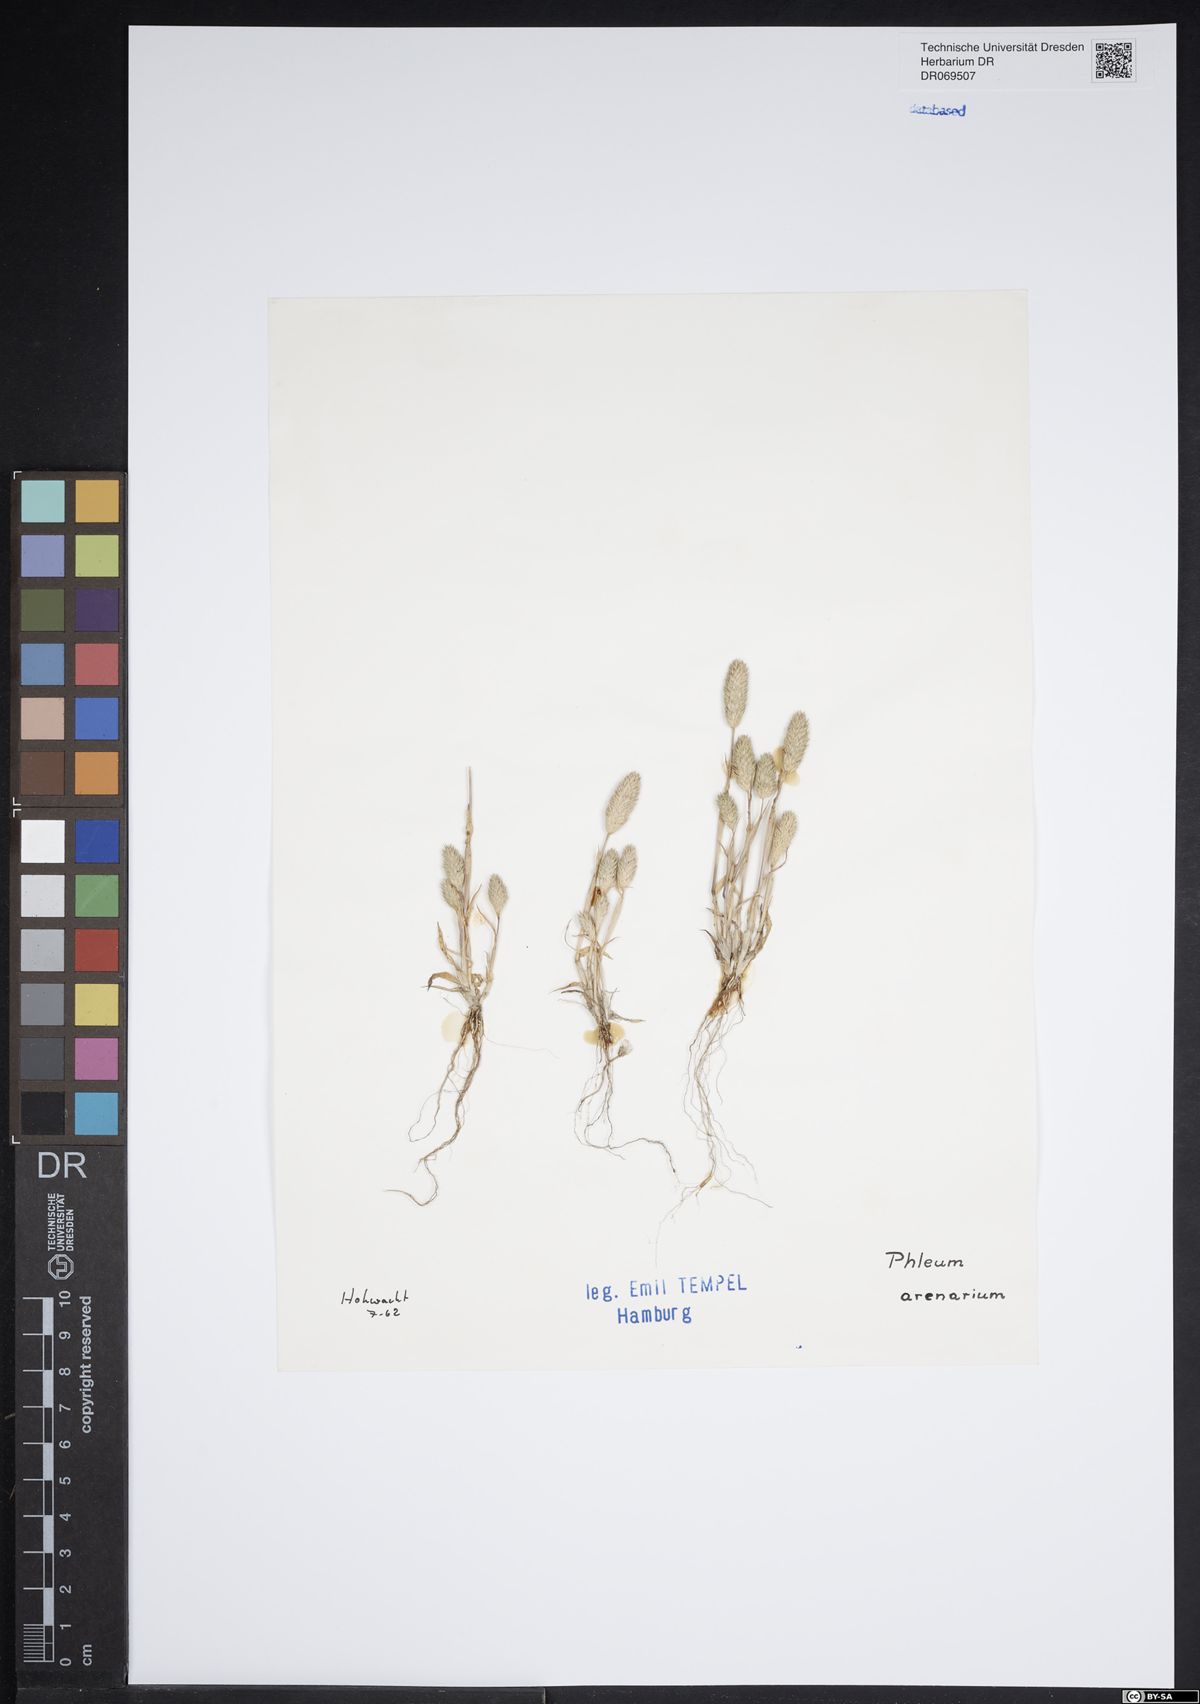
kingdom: Plantae
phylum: Tracheophyta
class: Liliopsida
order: Poales
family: Poaceae
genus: Phleum
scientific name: Phleum arenarium
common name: Sand cat's-tail
